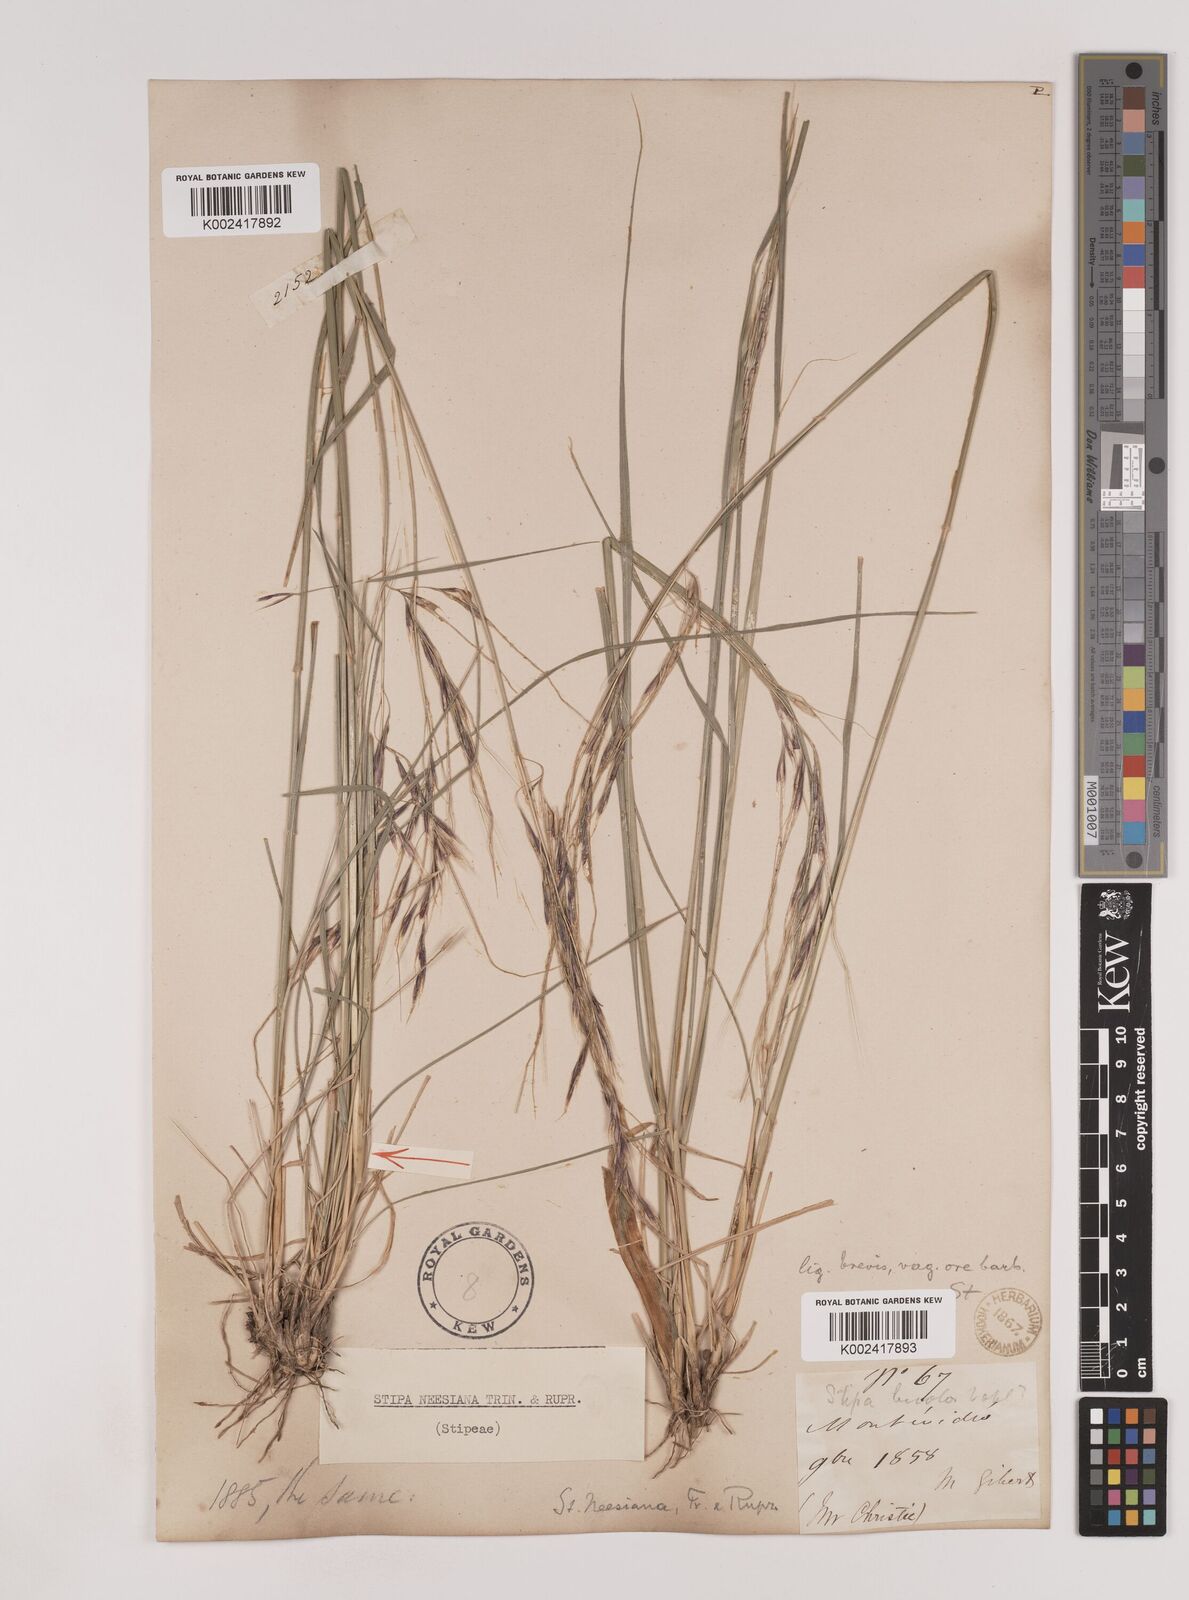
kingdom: Plantae
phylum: Tracheophyta
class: Liliopsida
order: Poales
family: Poaceae
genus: Nassella
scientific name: Nassella neesiana
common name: American needle-grass
